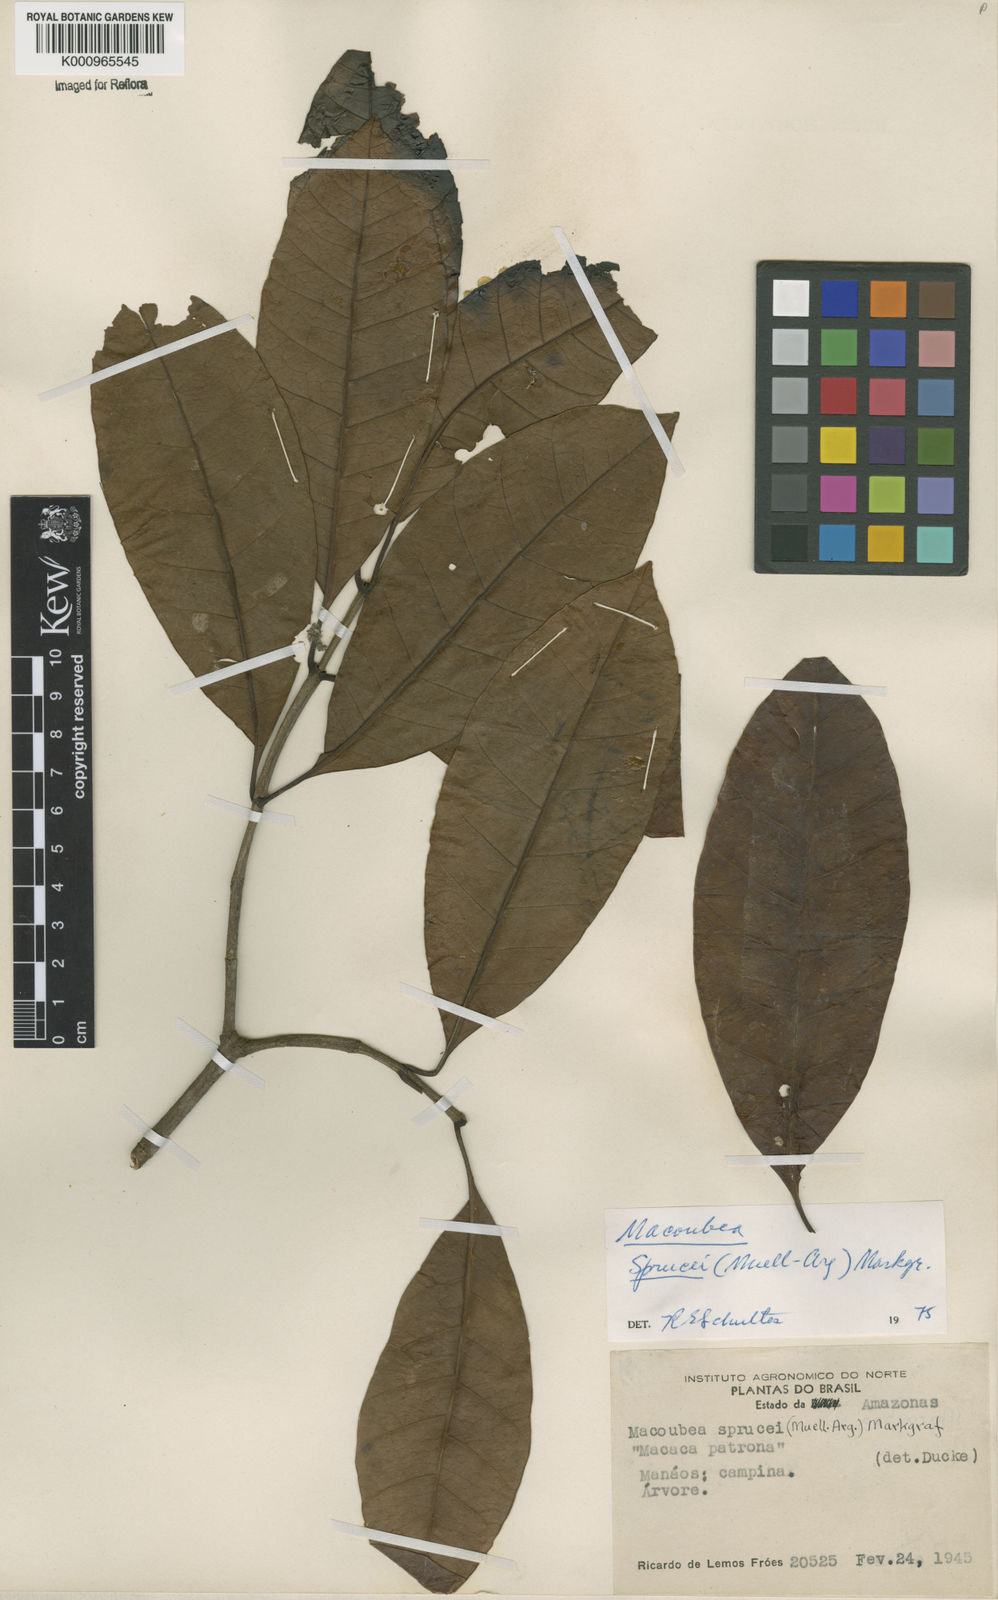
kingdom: Plantae
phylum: Tracheophyta
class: Magnoliopsida
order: Gentianales
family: Apocynaceae
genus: Macoubea
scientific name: Macoubea
